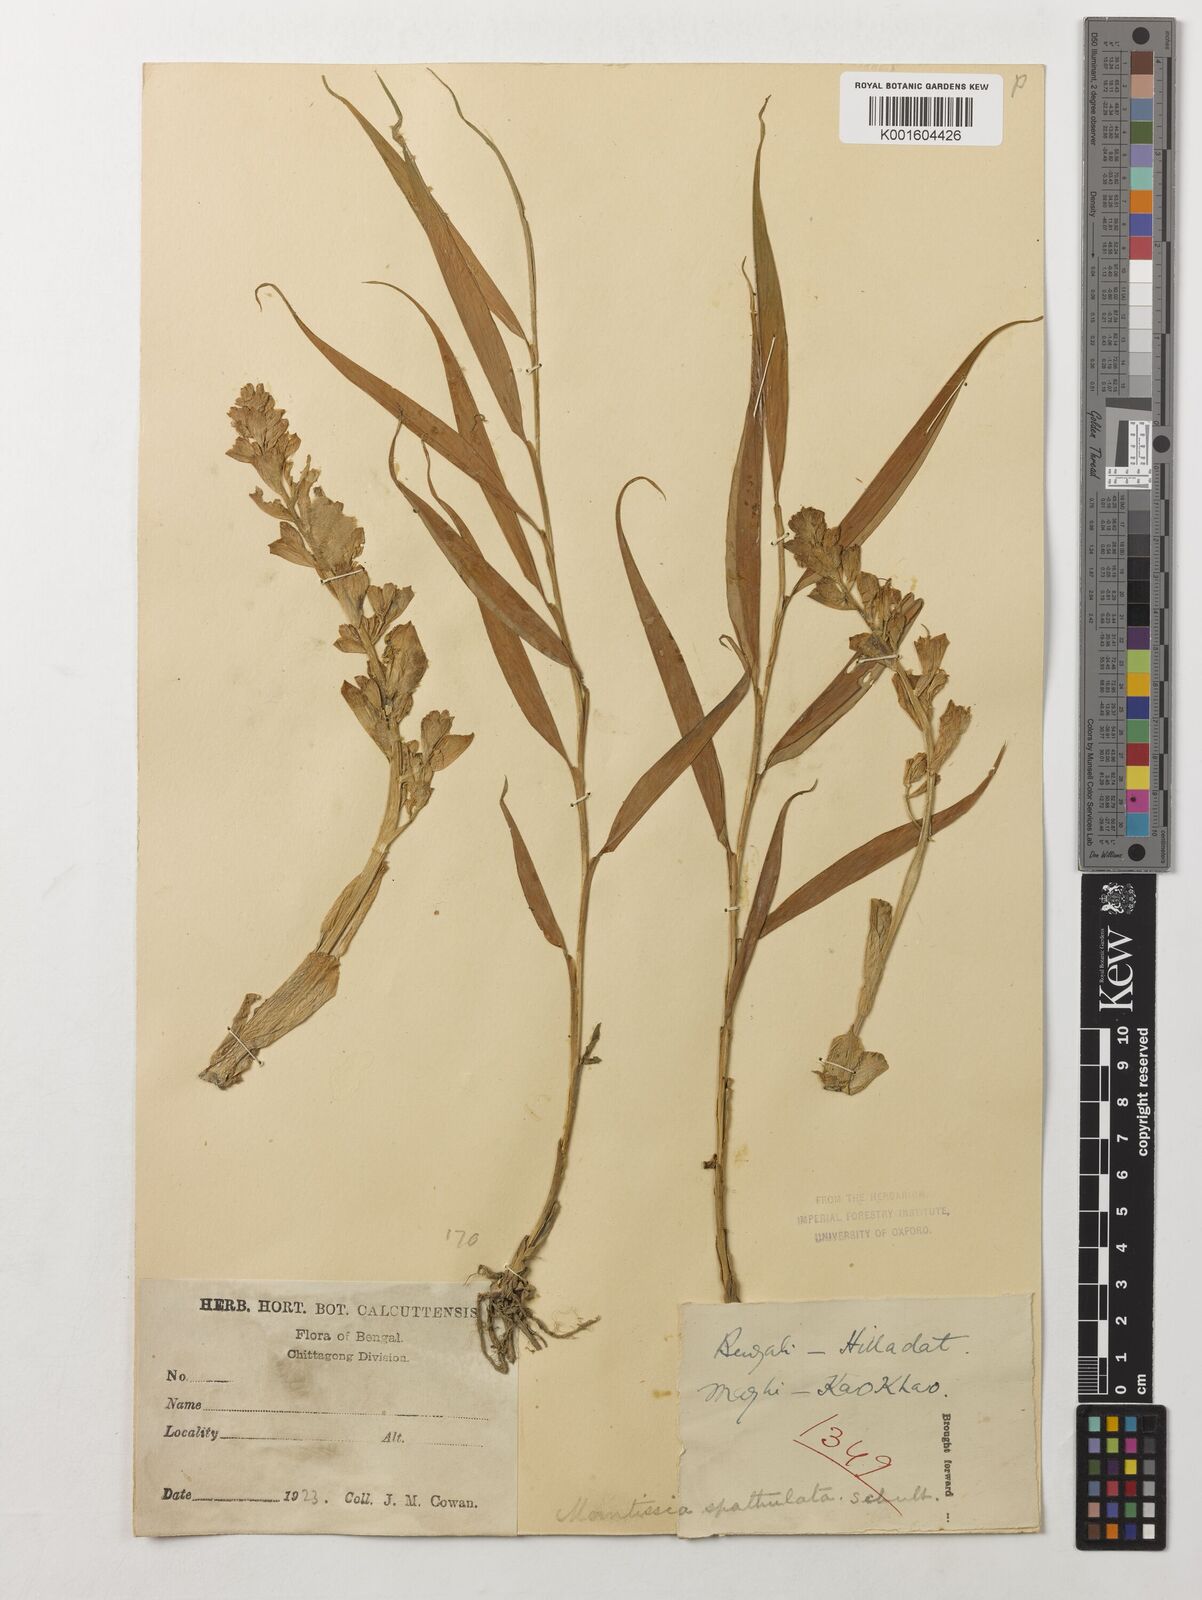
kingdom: Plantae
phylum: Tracheophyta
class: Liliopsida
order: Zingiberales
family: Zingiberaceae
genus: Globba
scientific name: Globba spathulata
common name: Dancing girl flower
